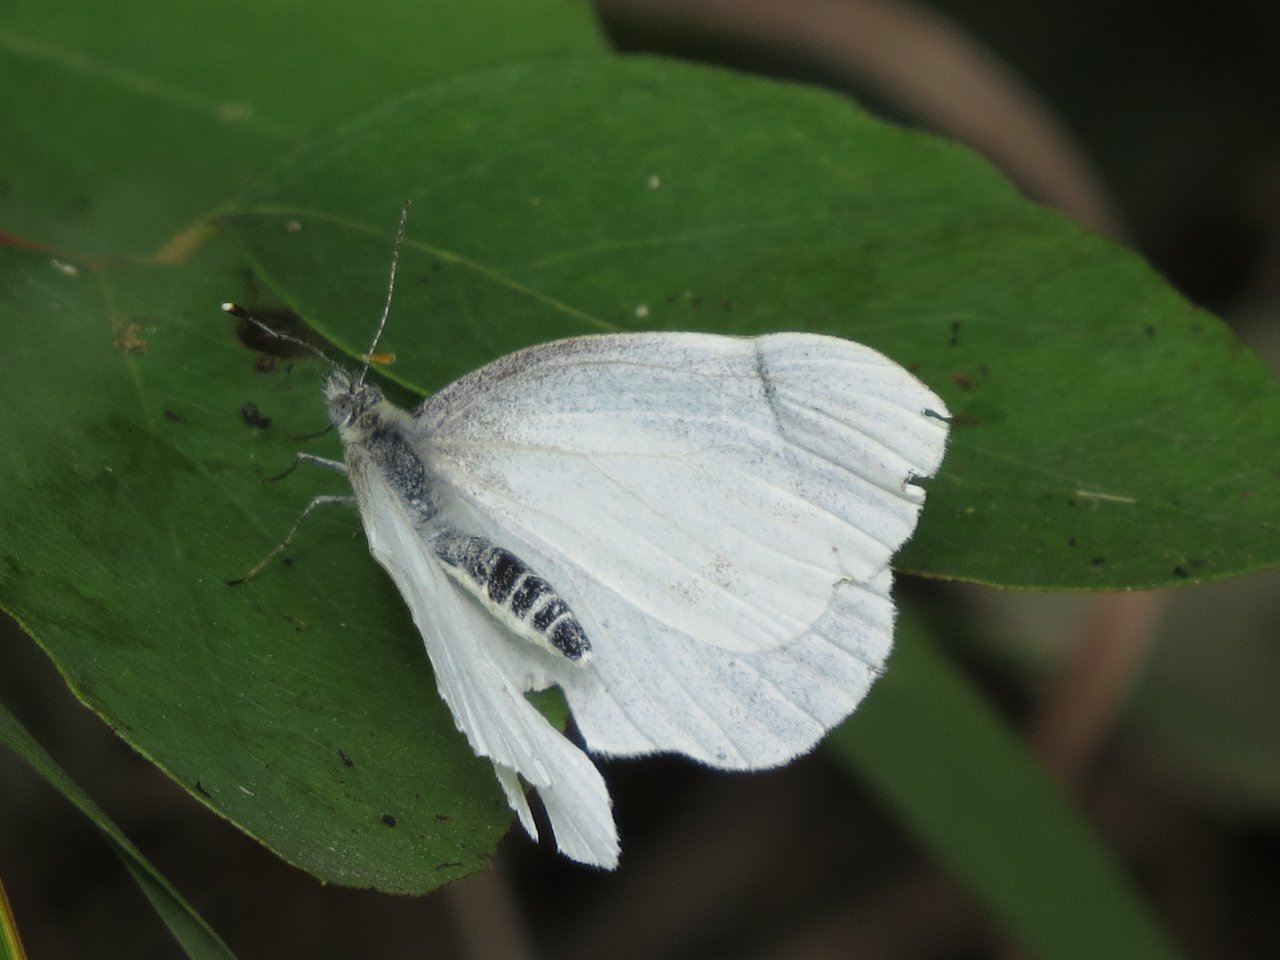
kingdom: Animalia
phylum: Arthropoda
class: Insecta
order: Lepidoptera
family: Pieridae
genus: Pieris
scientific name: Pieris oleracea
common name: Mustard White
